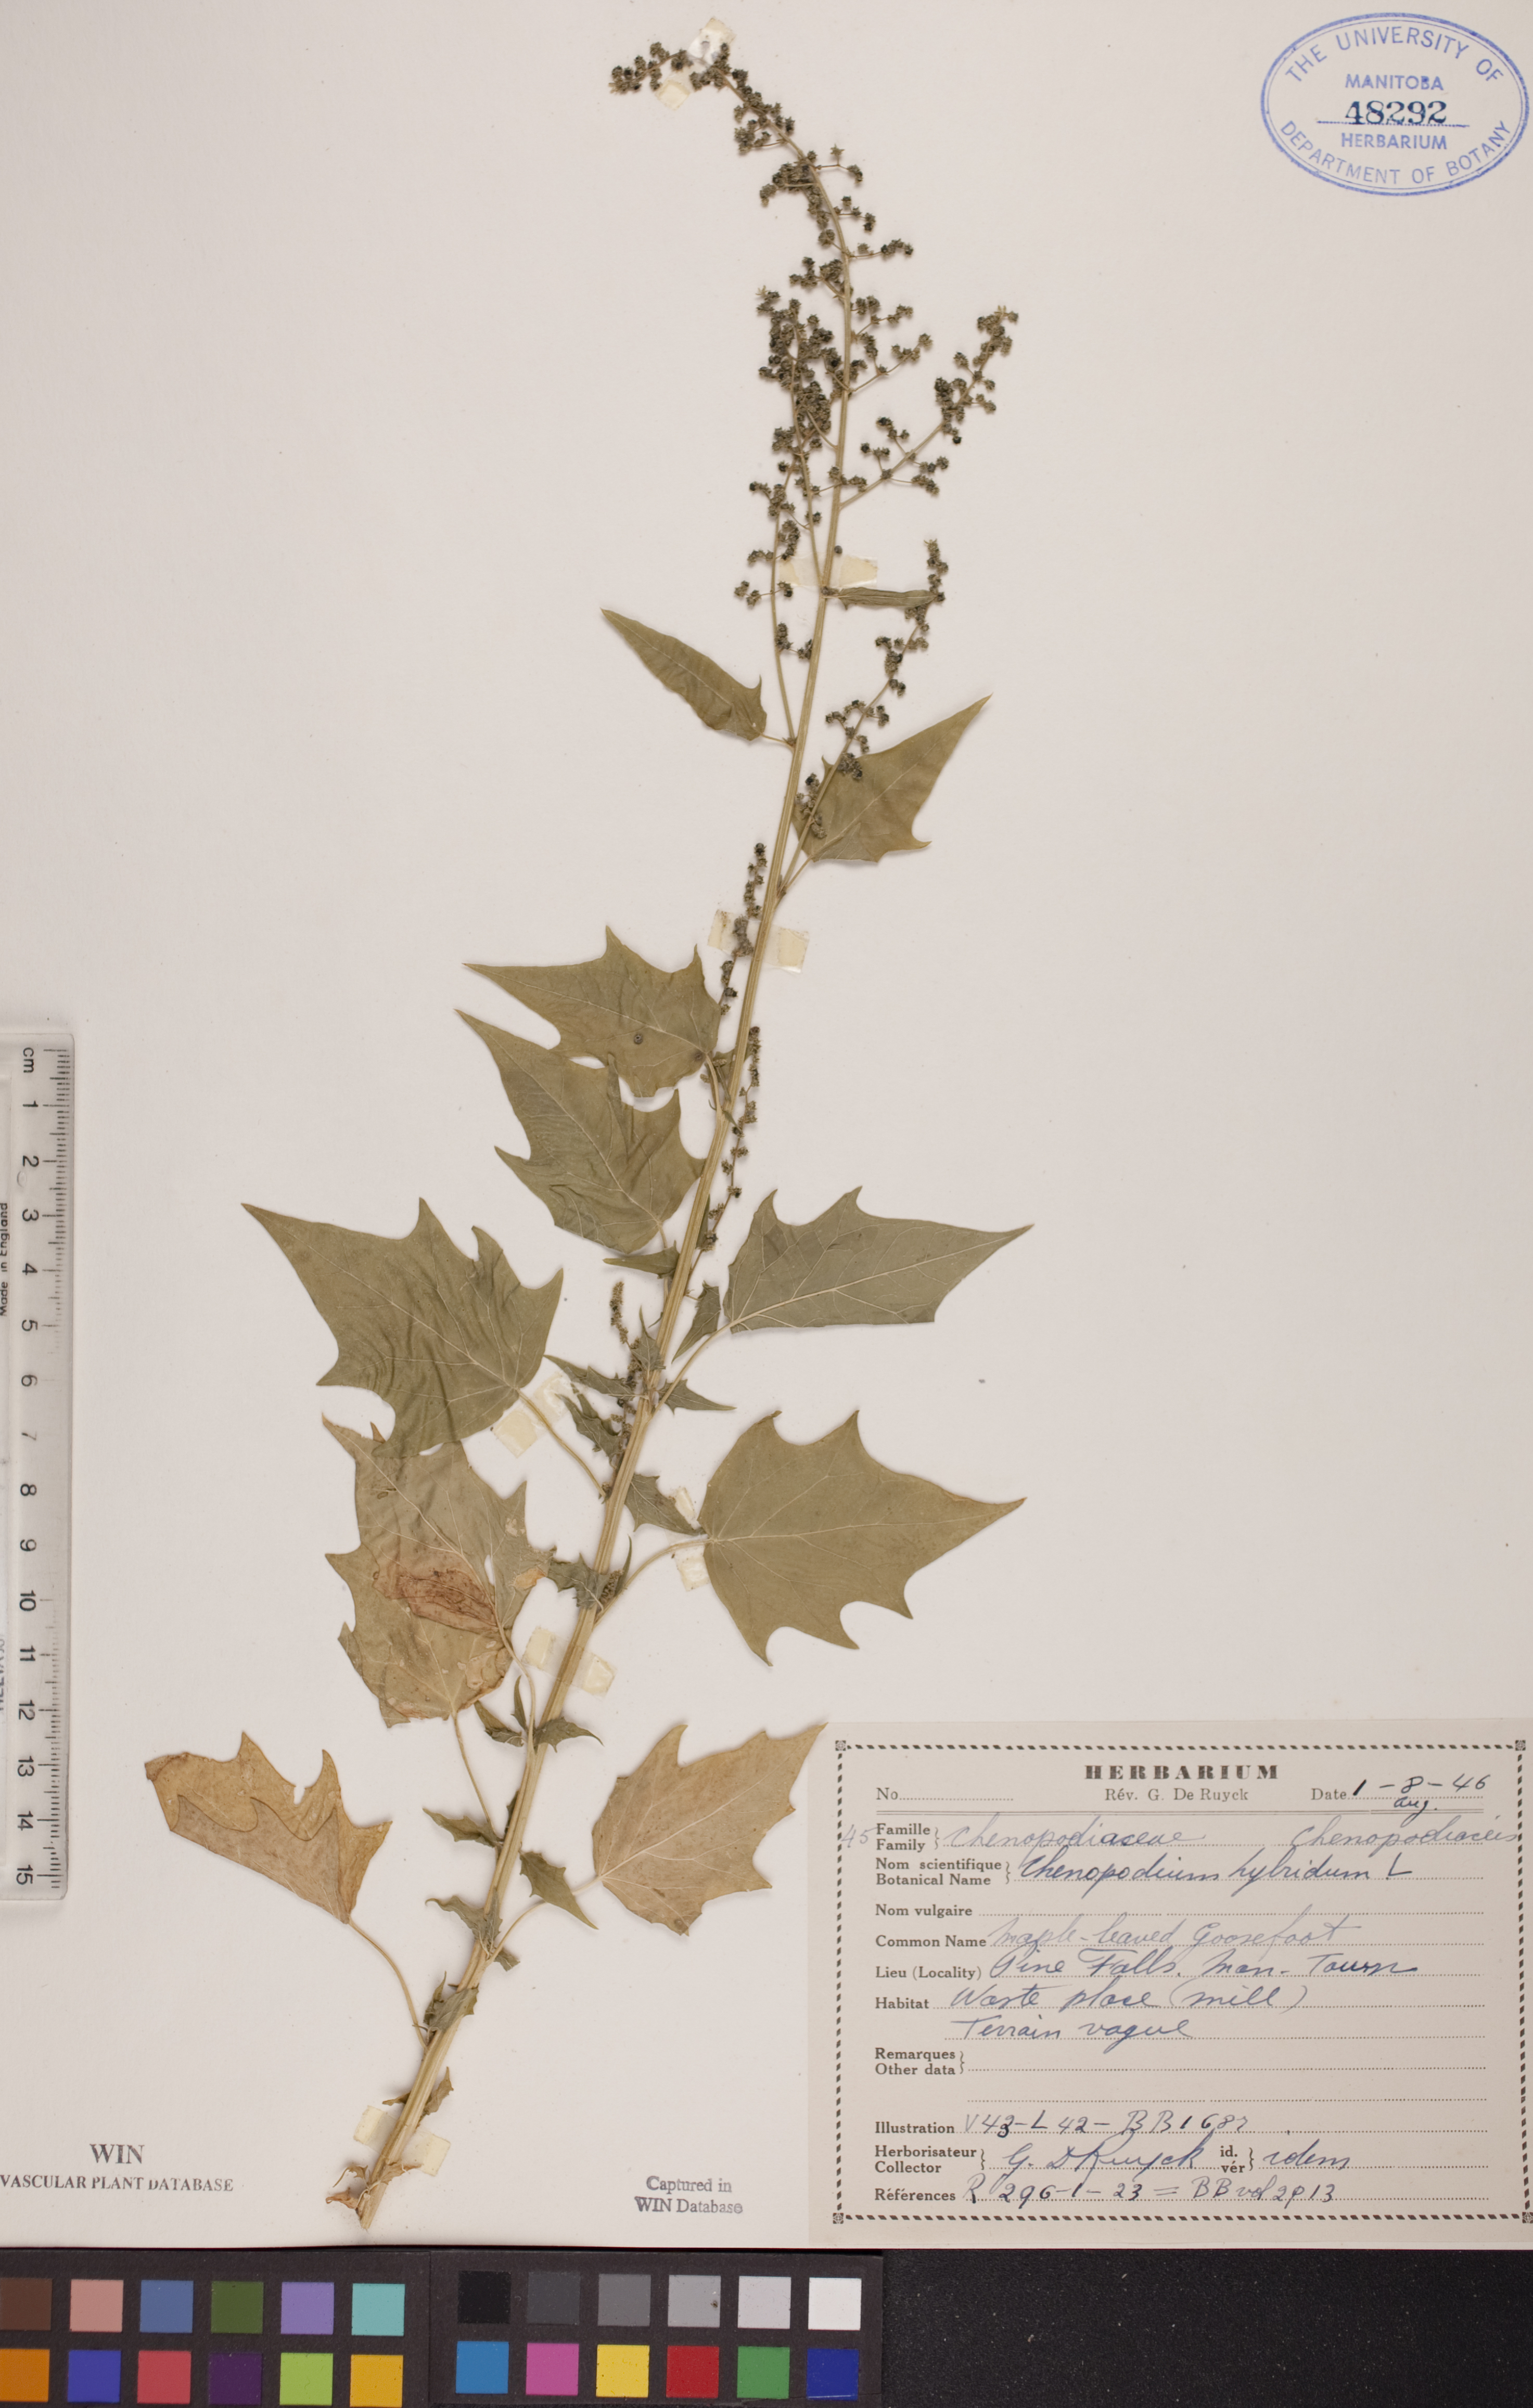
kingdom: Plantae
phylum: Tracheophyta
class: Magnoliopsida
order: Caryophyllales
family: Amaranthaceae
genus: Chenopodiastrum
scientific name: Chenopodiastrum hybridum
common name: Mapleleaf goosefoot
